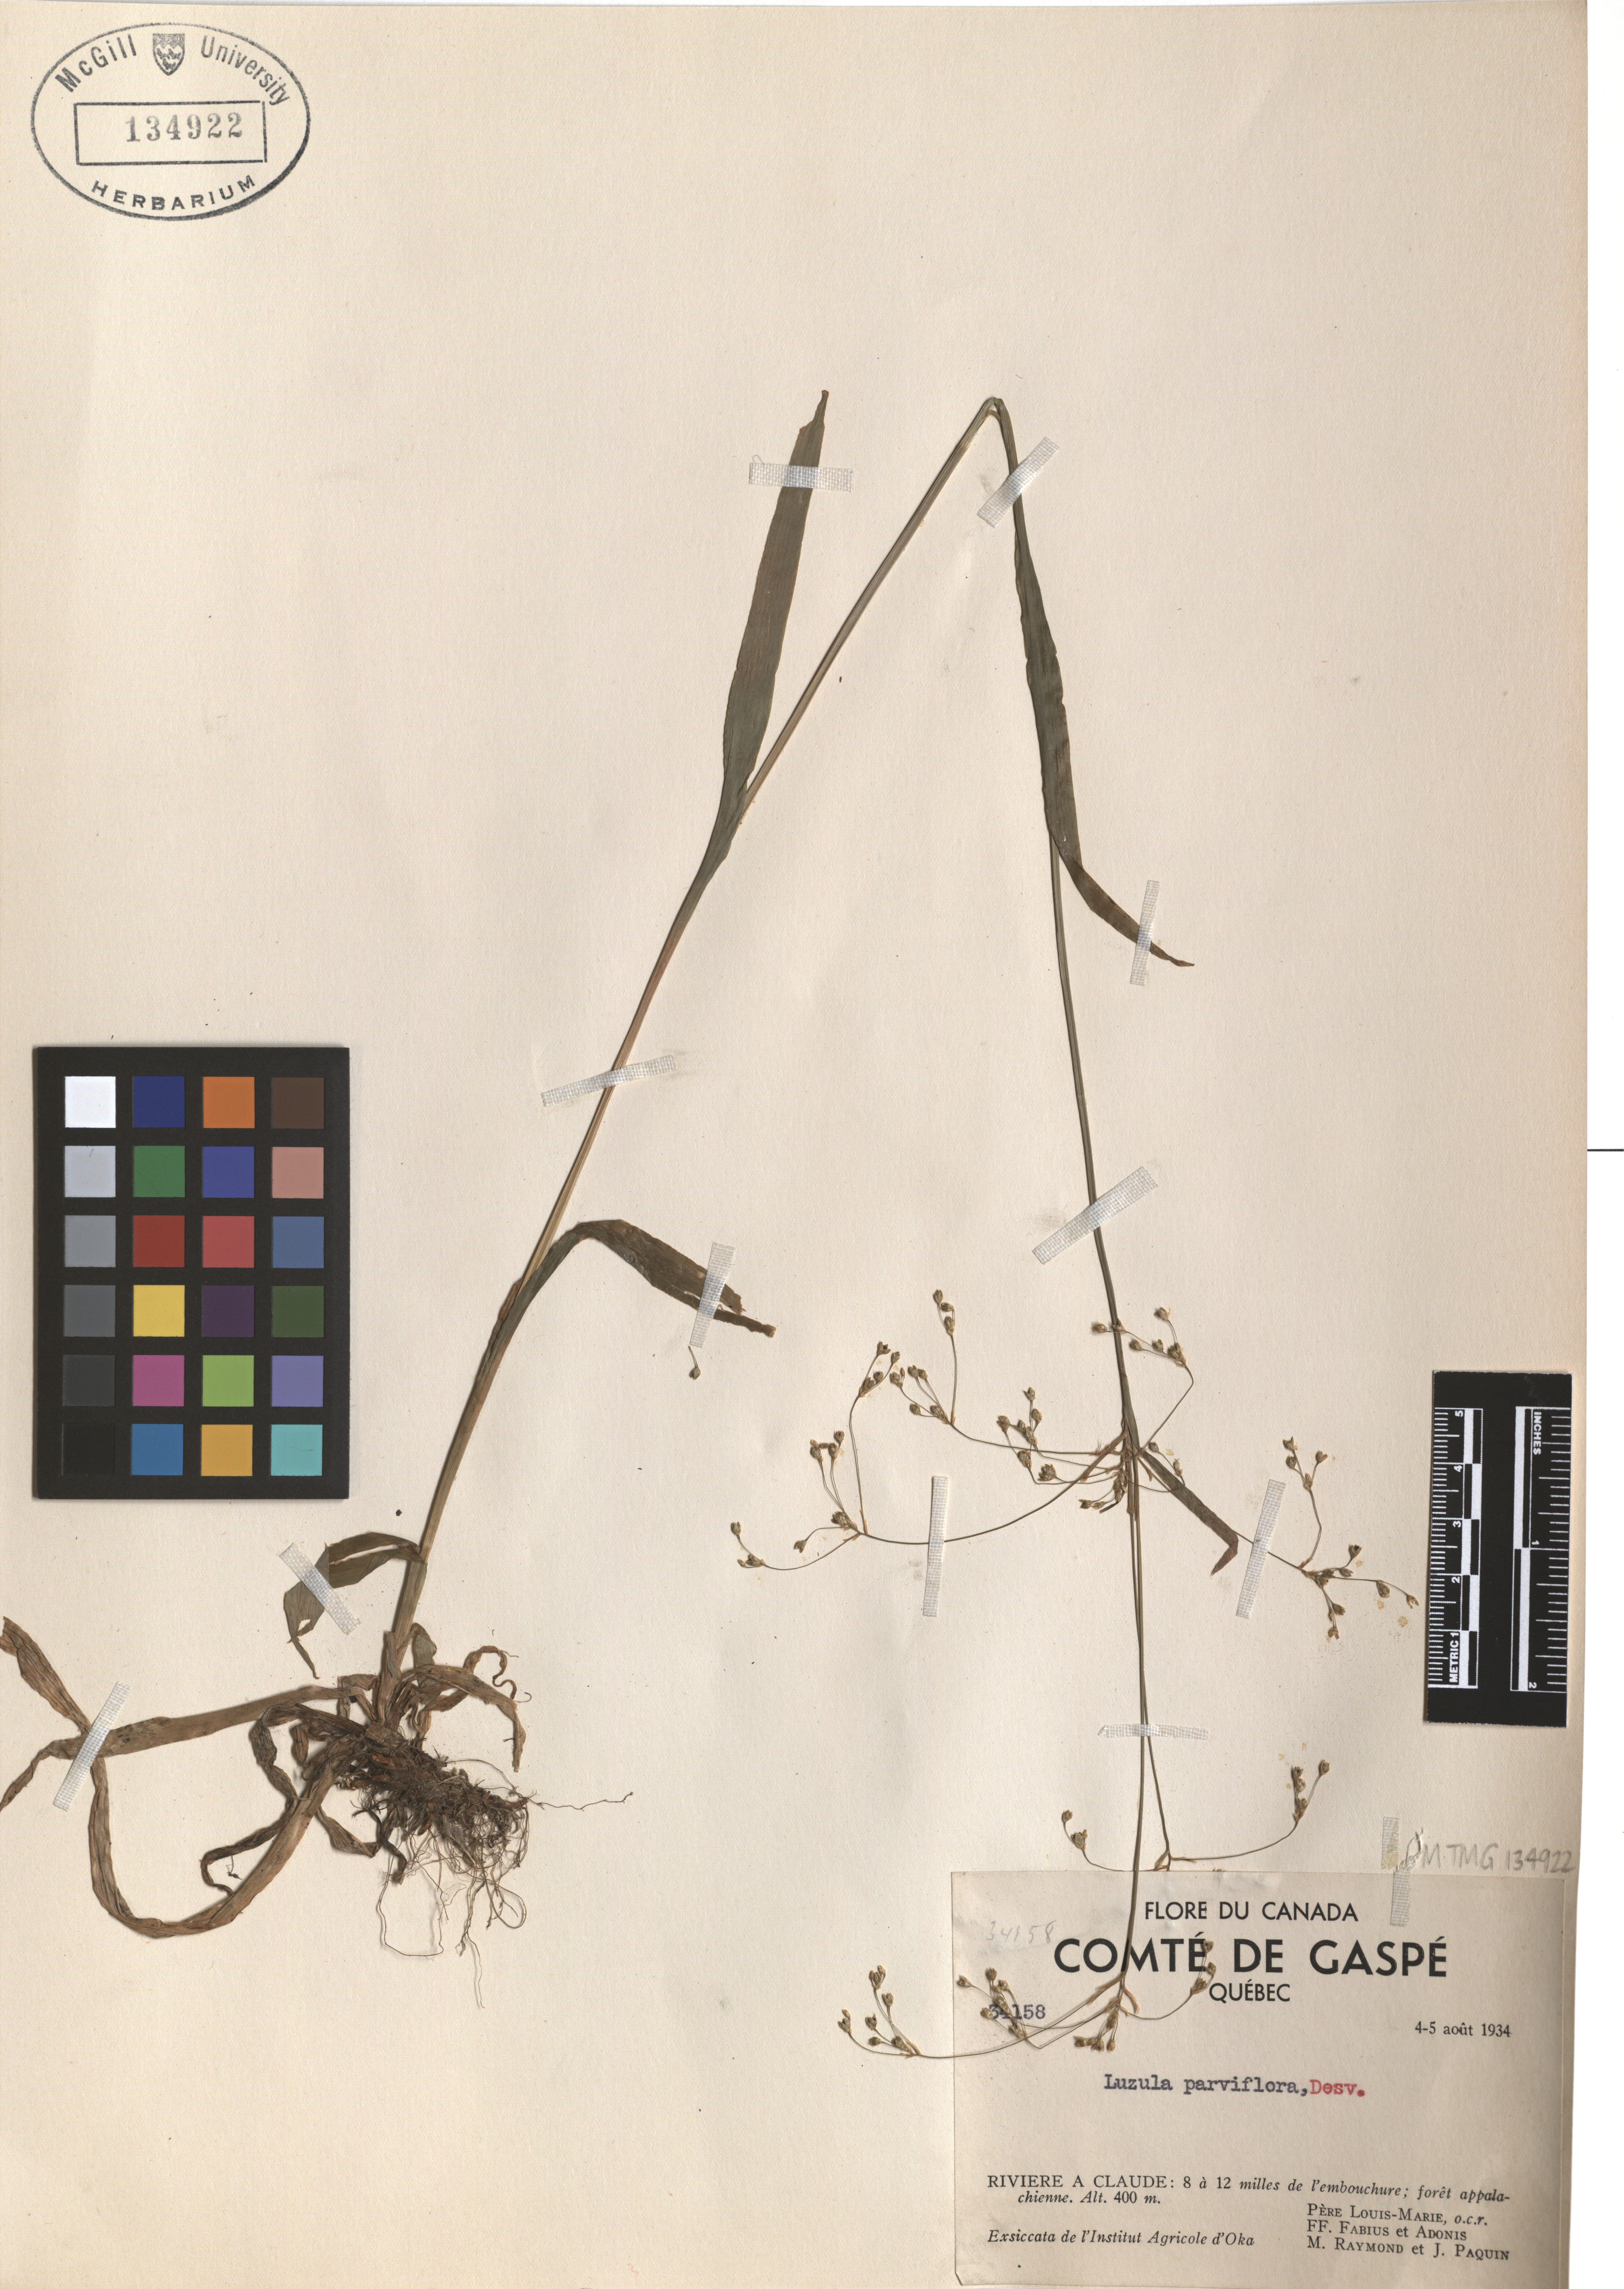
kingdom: Plantae
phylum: Tracheophyta
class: Liliopsida
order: Poales
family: Juncaceae
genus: Luzula
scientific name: Luzula parviflora
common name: Millet woodrush
